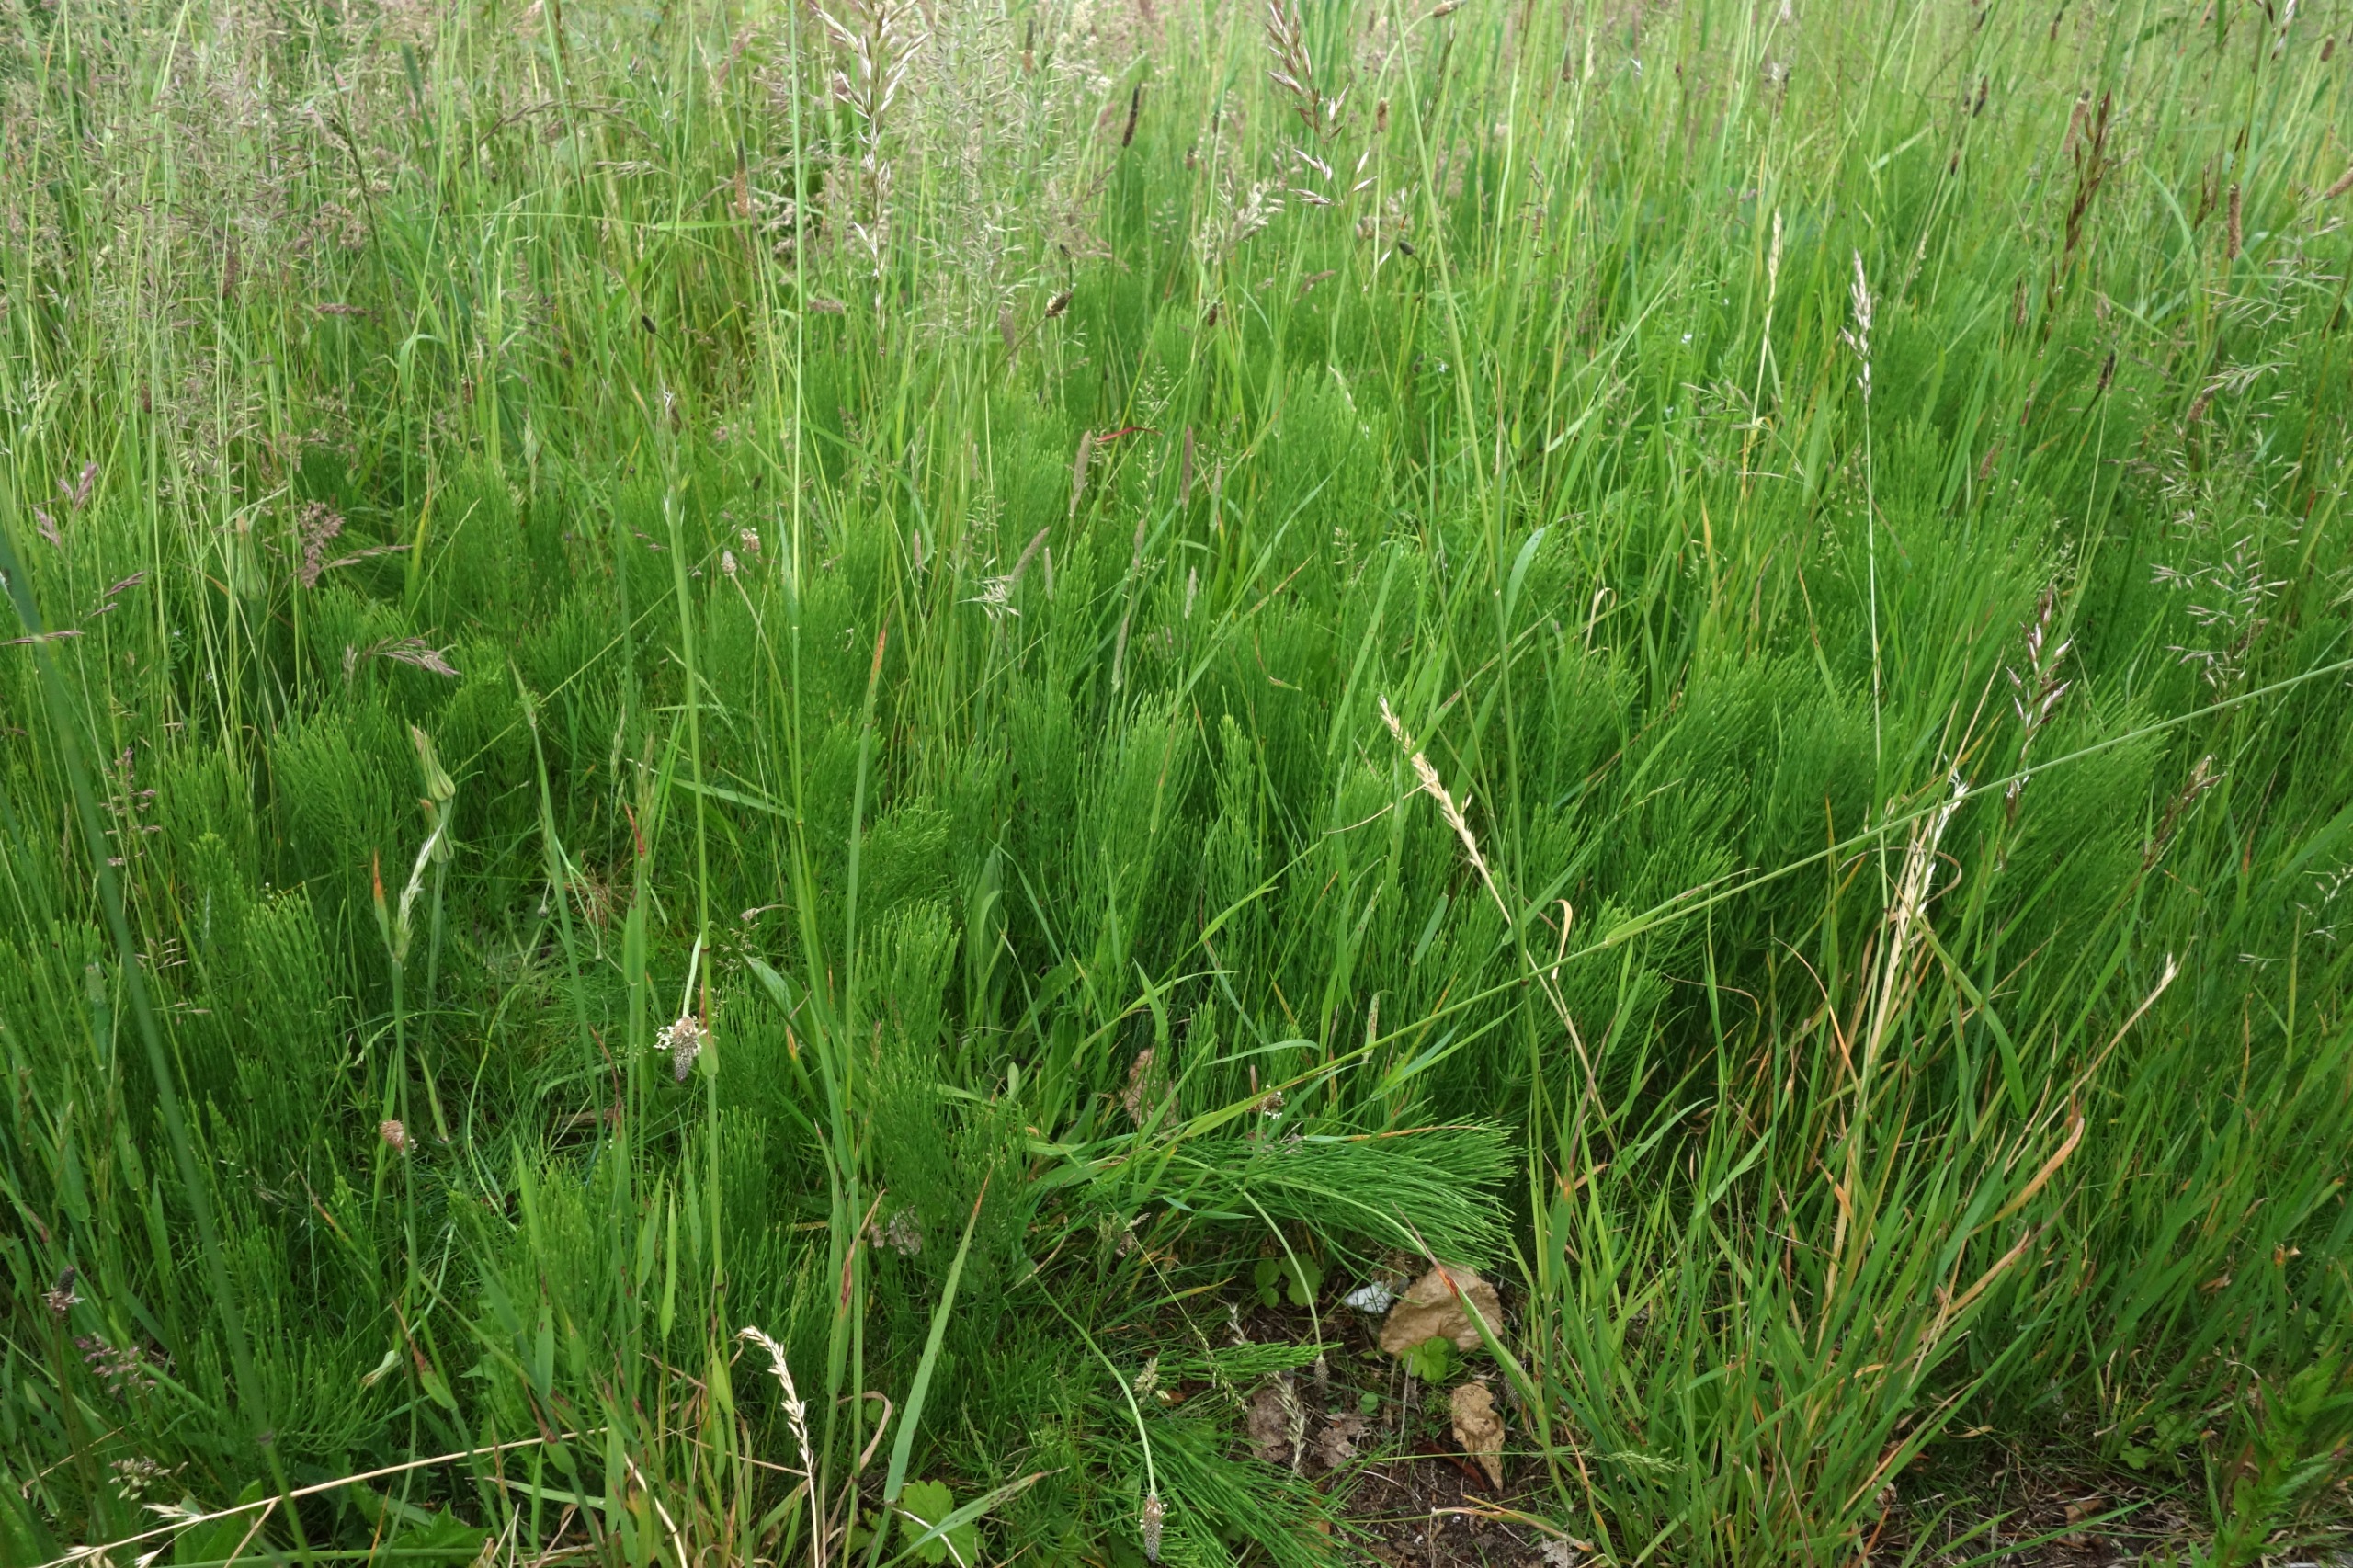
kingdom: Plantae
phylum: Tracheophyta
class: Polypodiopsida
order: Equisetales
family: Equisetaceae
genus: Equisetum
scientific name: Equisetum arvense
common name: Ager-padderok
